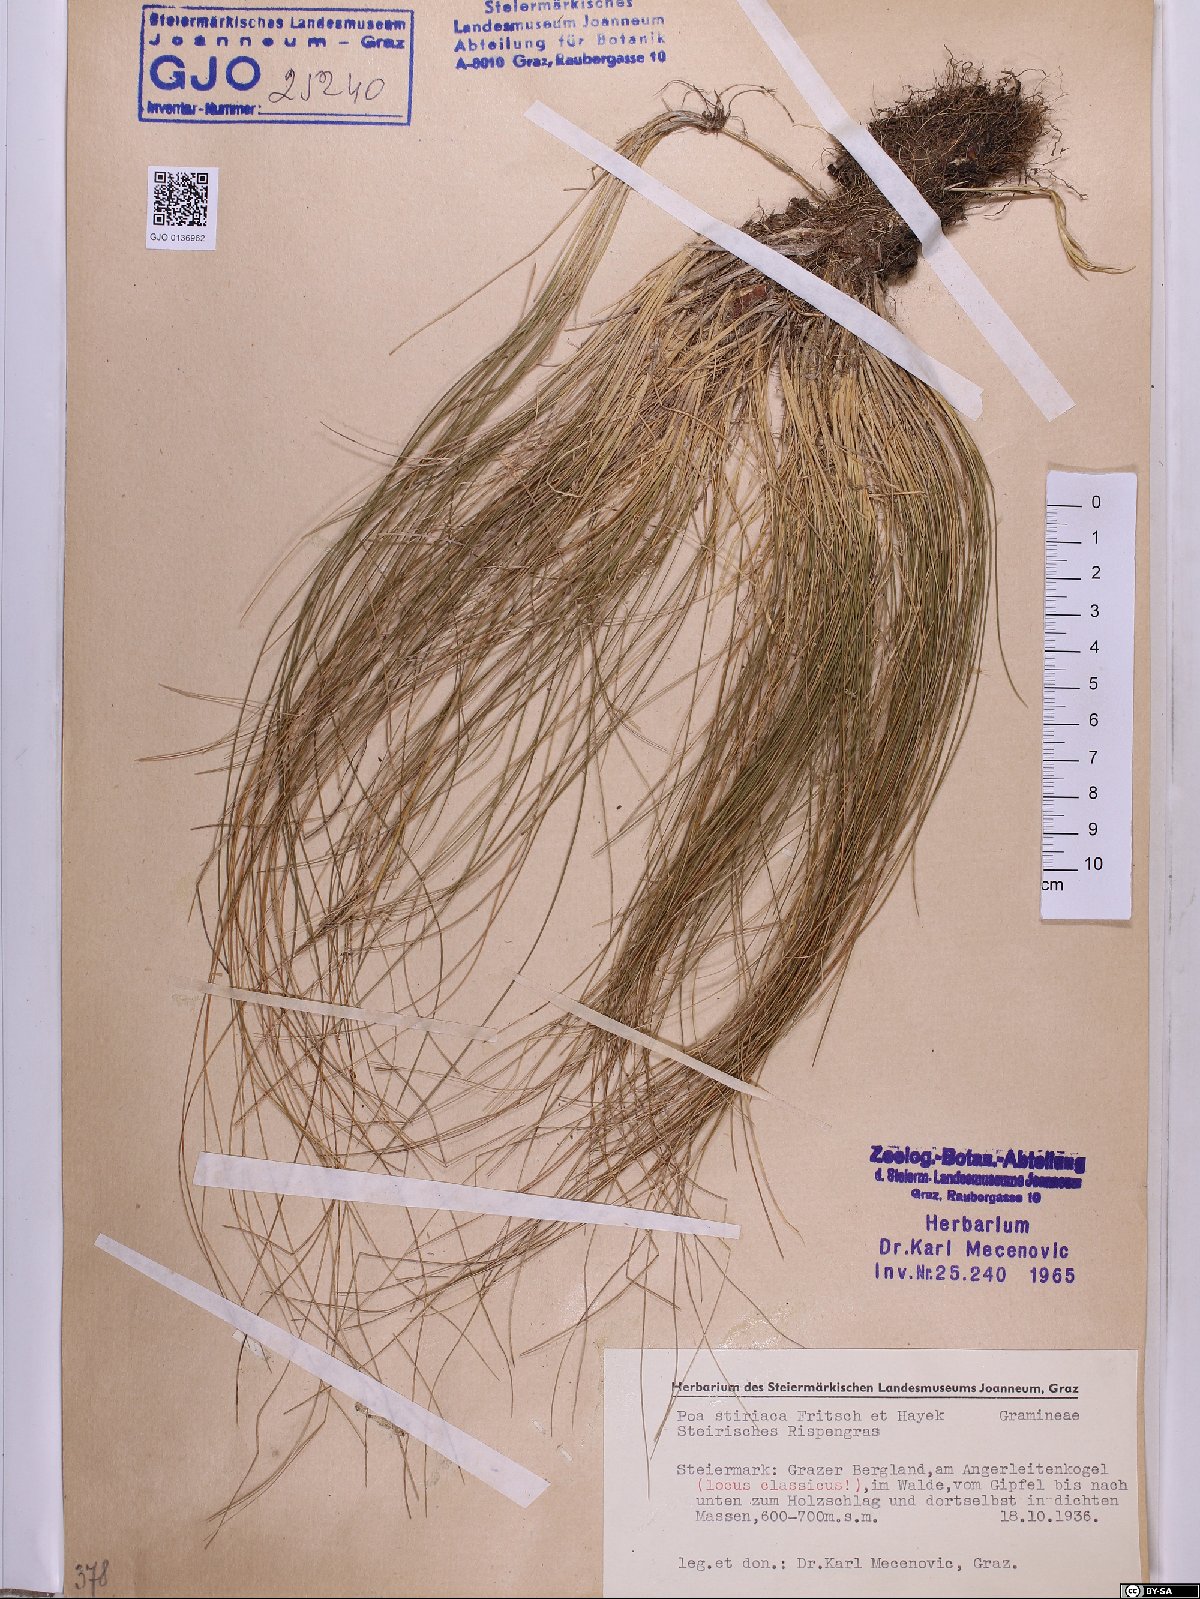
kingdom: Plantae
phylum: Tracheophyta
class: Liliopsida
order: Poales
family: Poaceae
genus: Poa
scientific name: Poa stiriaca
